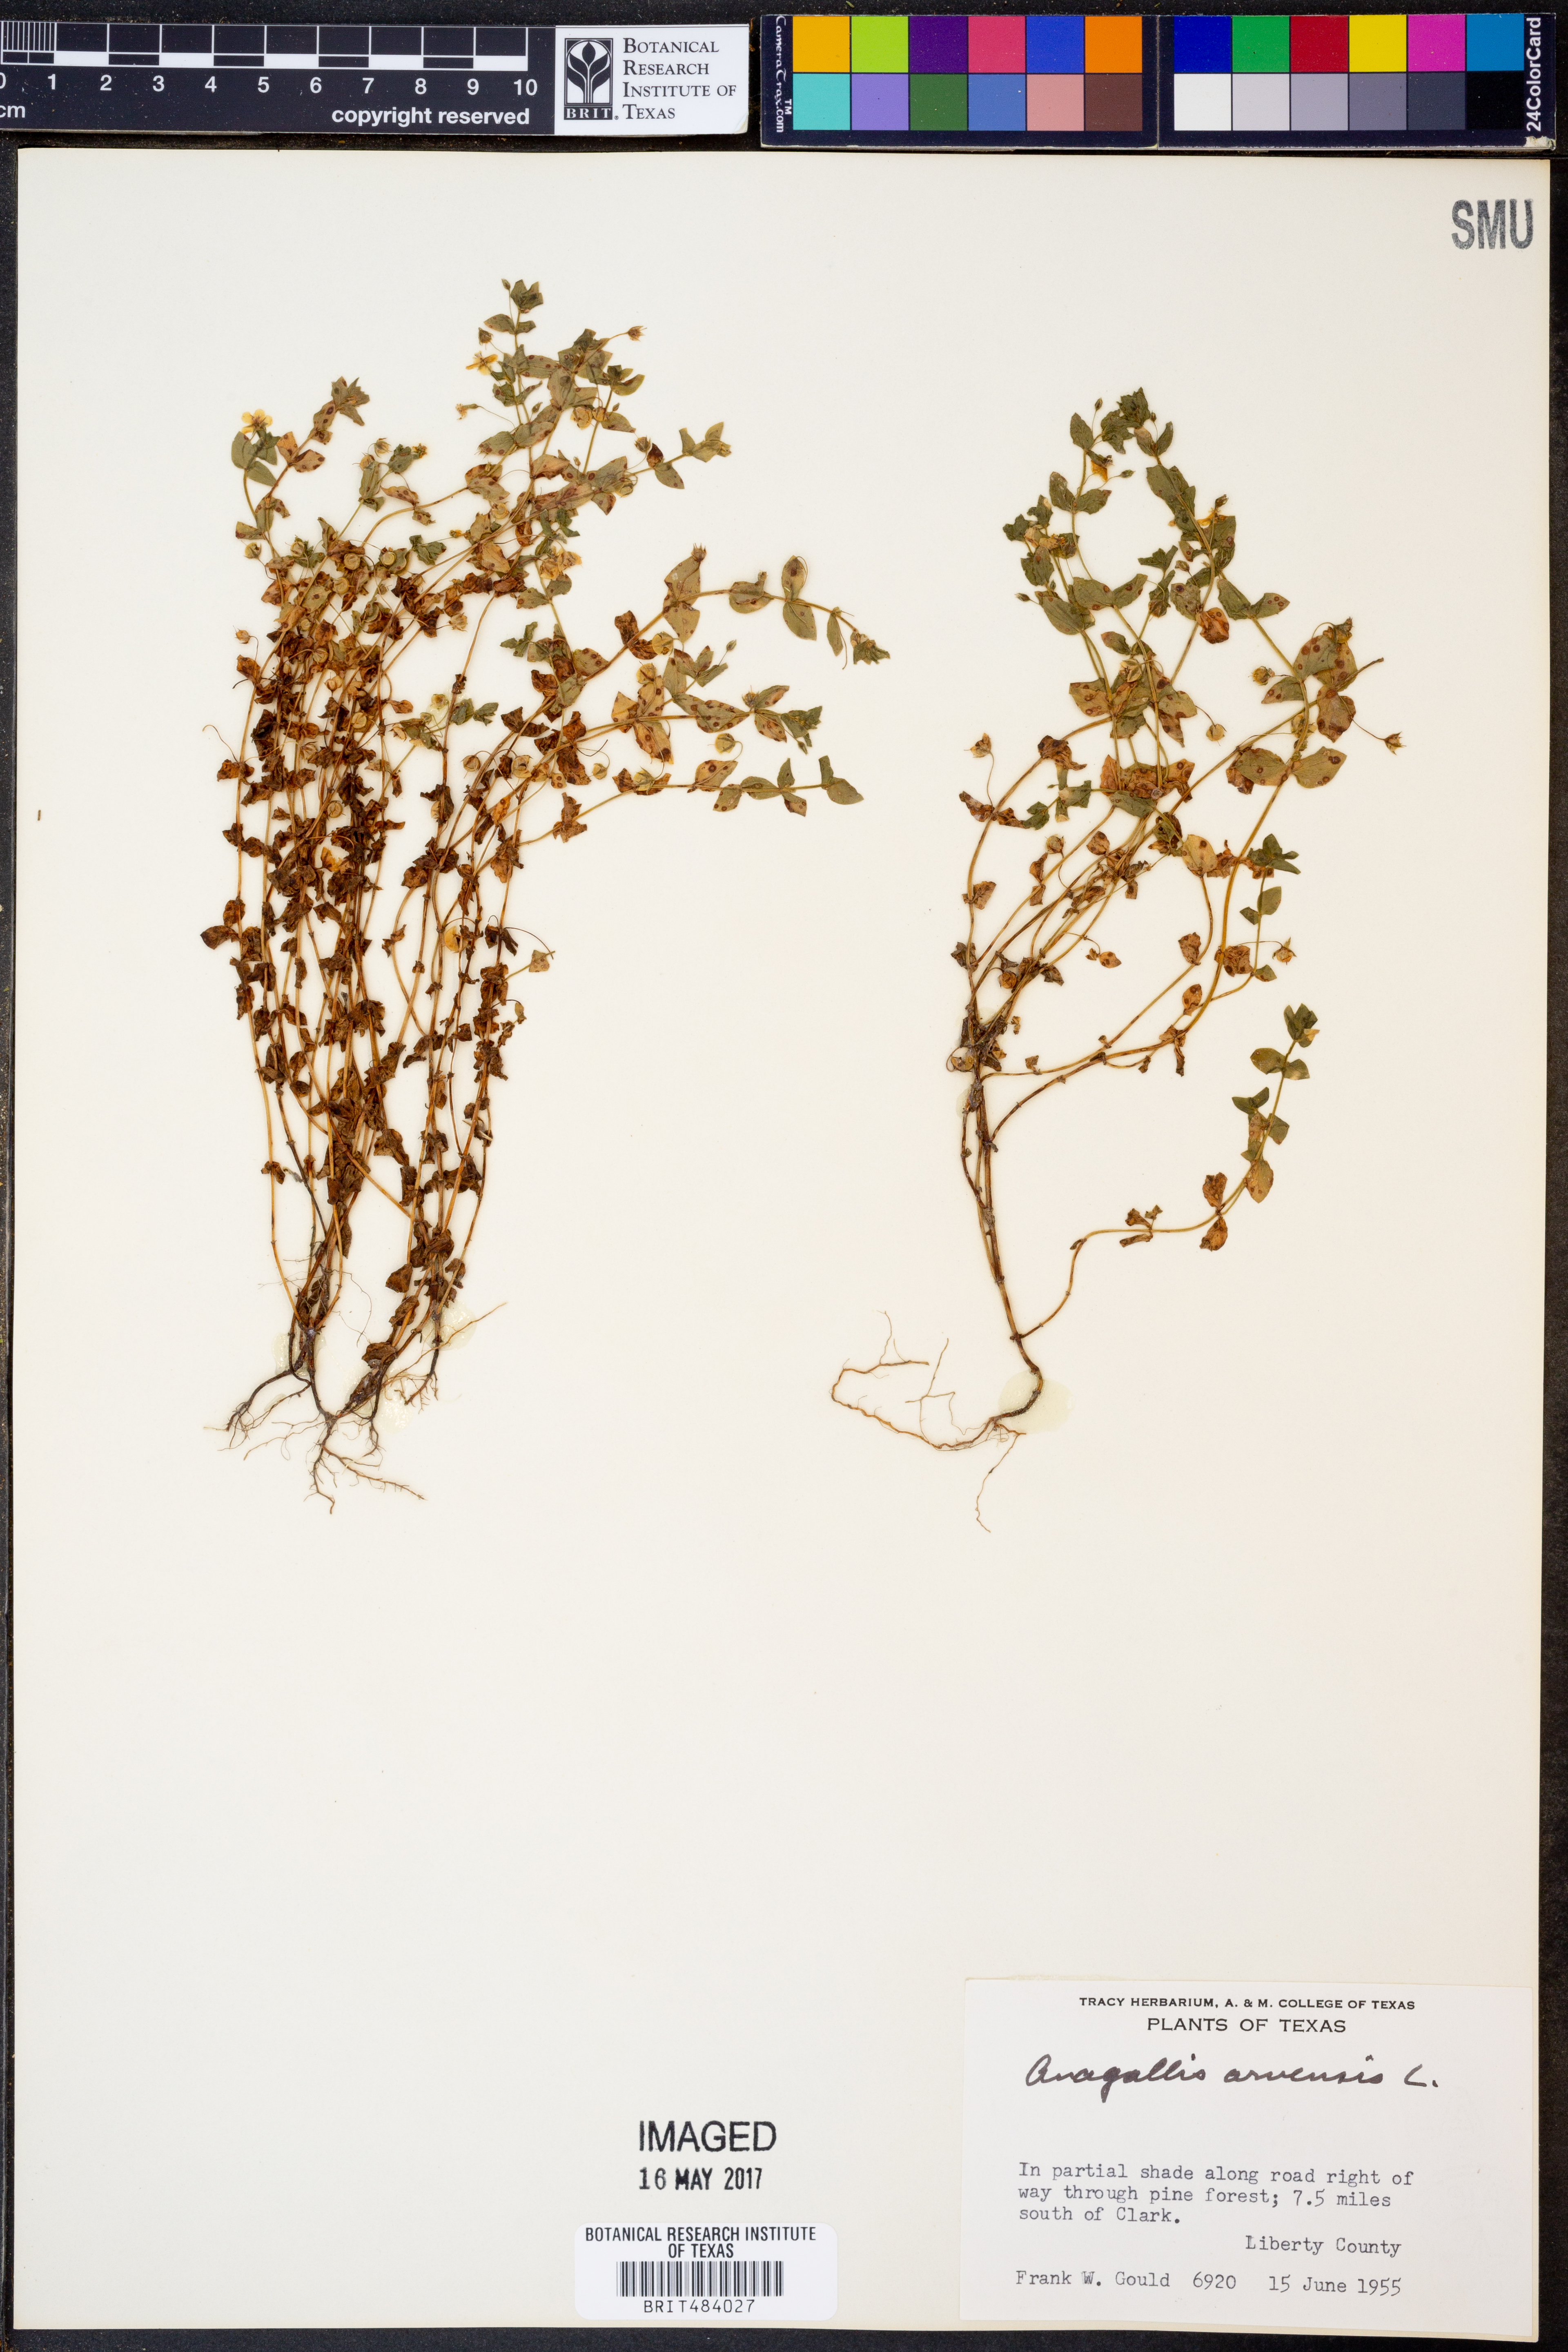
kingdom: Plantae
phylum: Tracheophyta
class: Magnoliopsida
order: Ericales
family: Primulaceae
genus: Lysimachia
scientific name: Lysimachia arvensis
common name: Scarlet pimpernel
